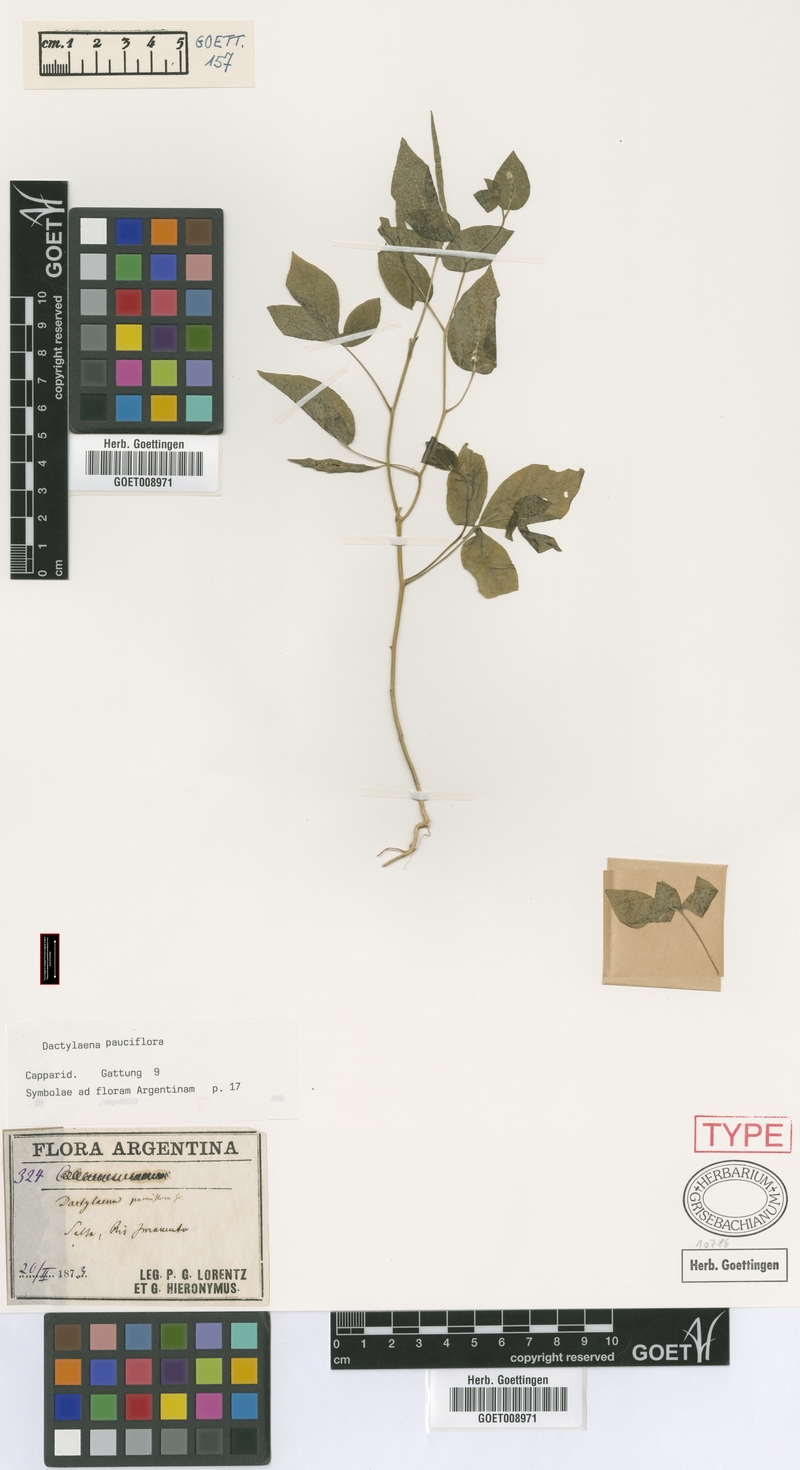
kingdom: Plantae
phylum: Tracheophyta
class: Magnoliopsida
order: Brassicales
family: Cleomaceae
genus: Dactylaena
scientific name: Dactylaena pauciflora
